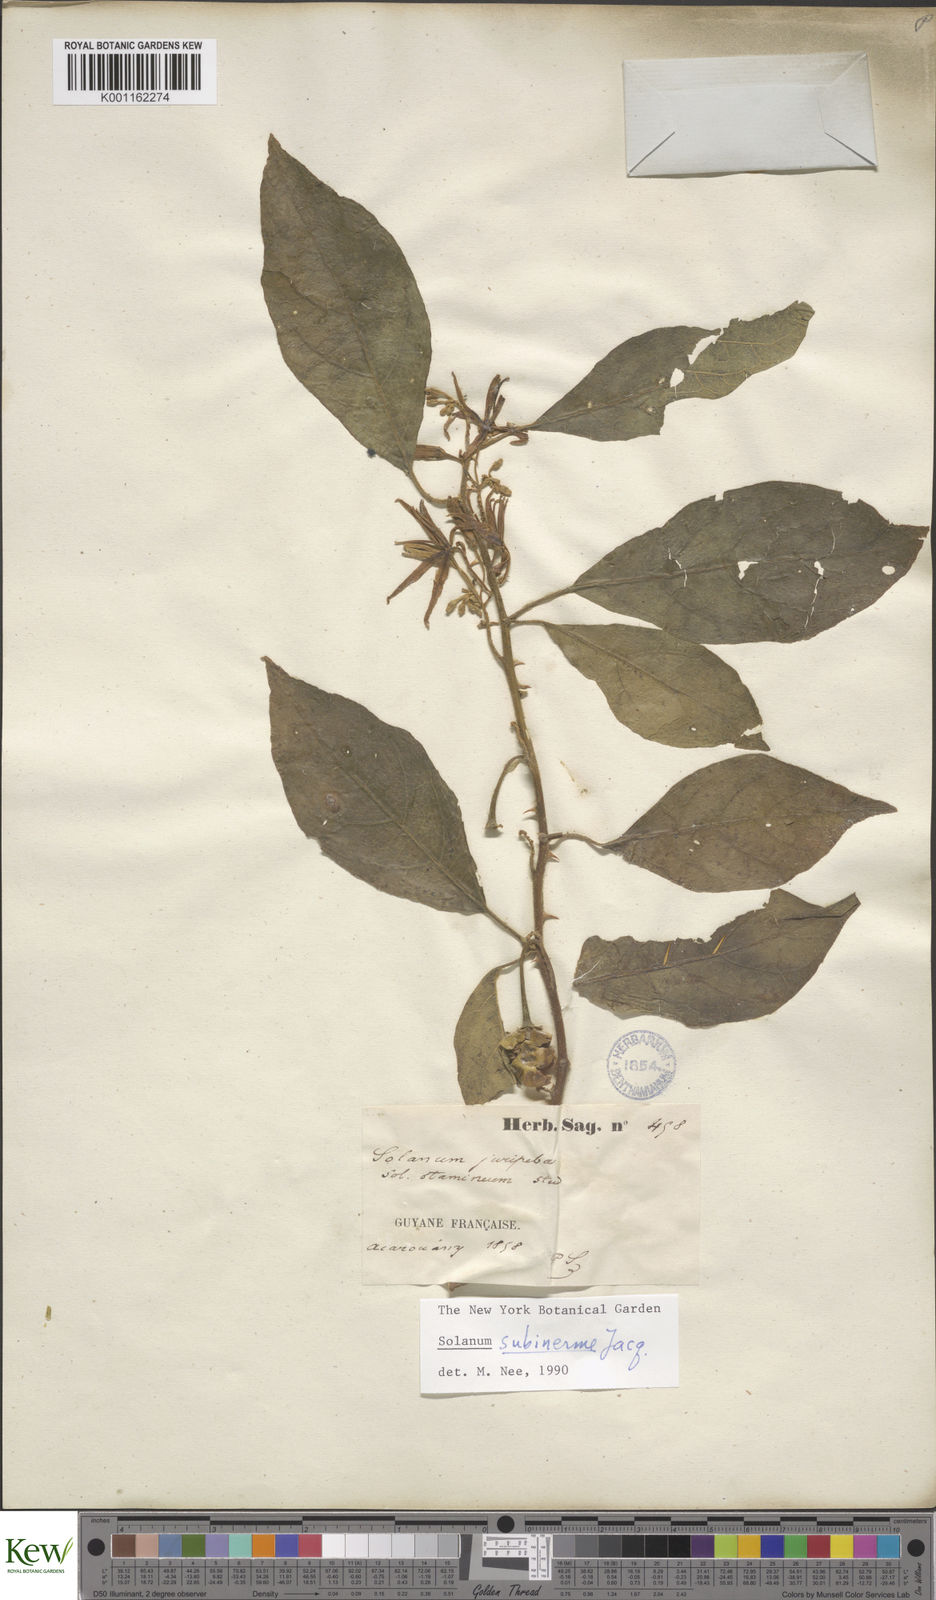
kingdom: Plantae
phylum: Tracheophyta
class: Magnoliopsida
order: Solanales
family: Solanaceae
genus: Solanum
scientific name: Solanum subinerme
